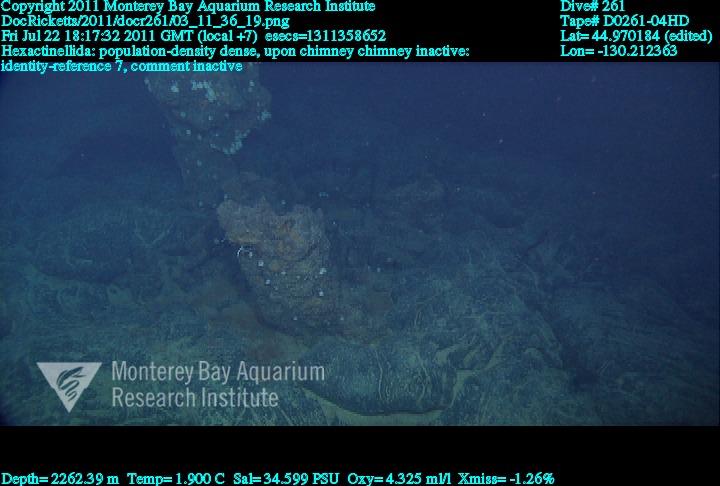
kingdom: Animalia
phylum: Porifera
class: Hexactinellida
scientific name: Hexactinellida
